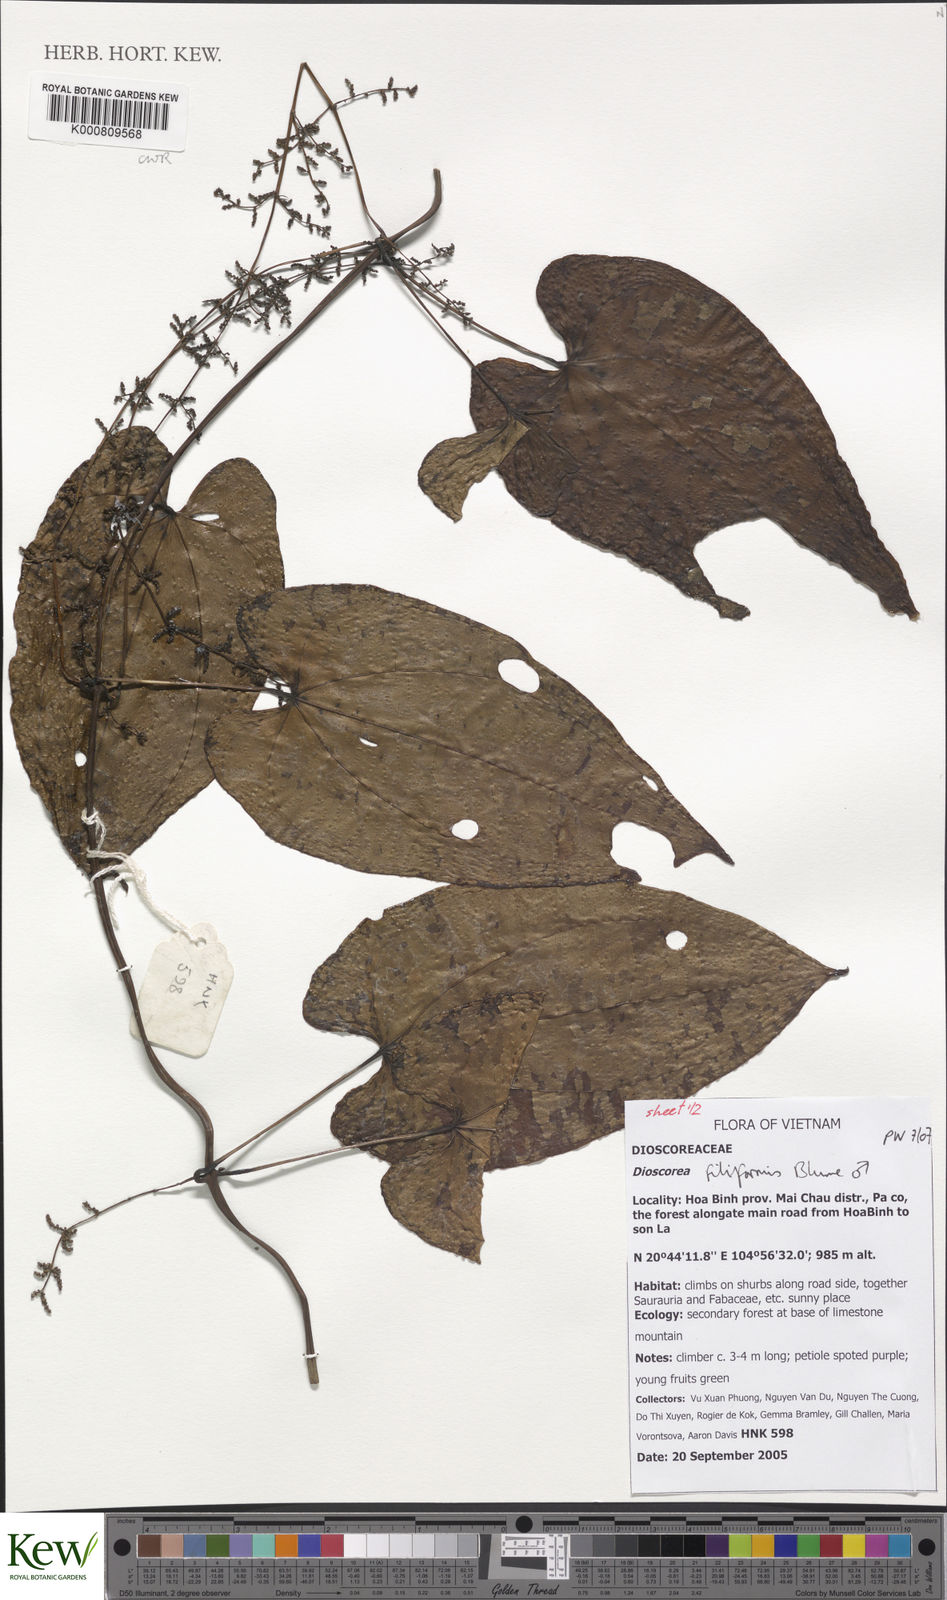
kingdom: Plantae
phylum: Tracheophyta
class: Liliopsida
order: Dioscoreales
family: Dioscoreaceae
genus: Dioscorea
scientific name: Dioscorea filiformis
